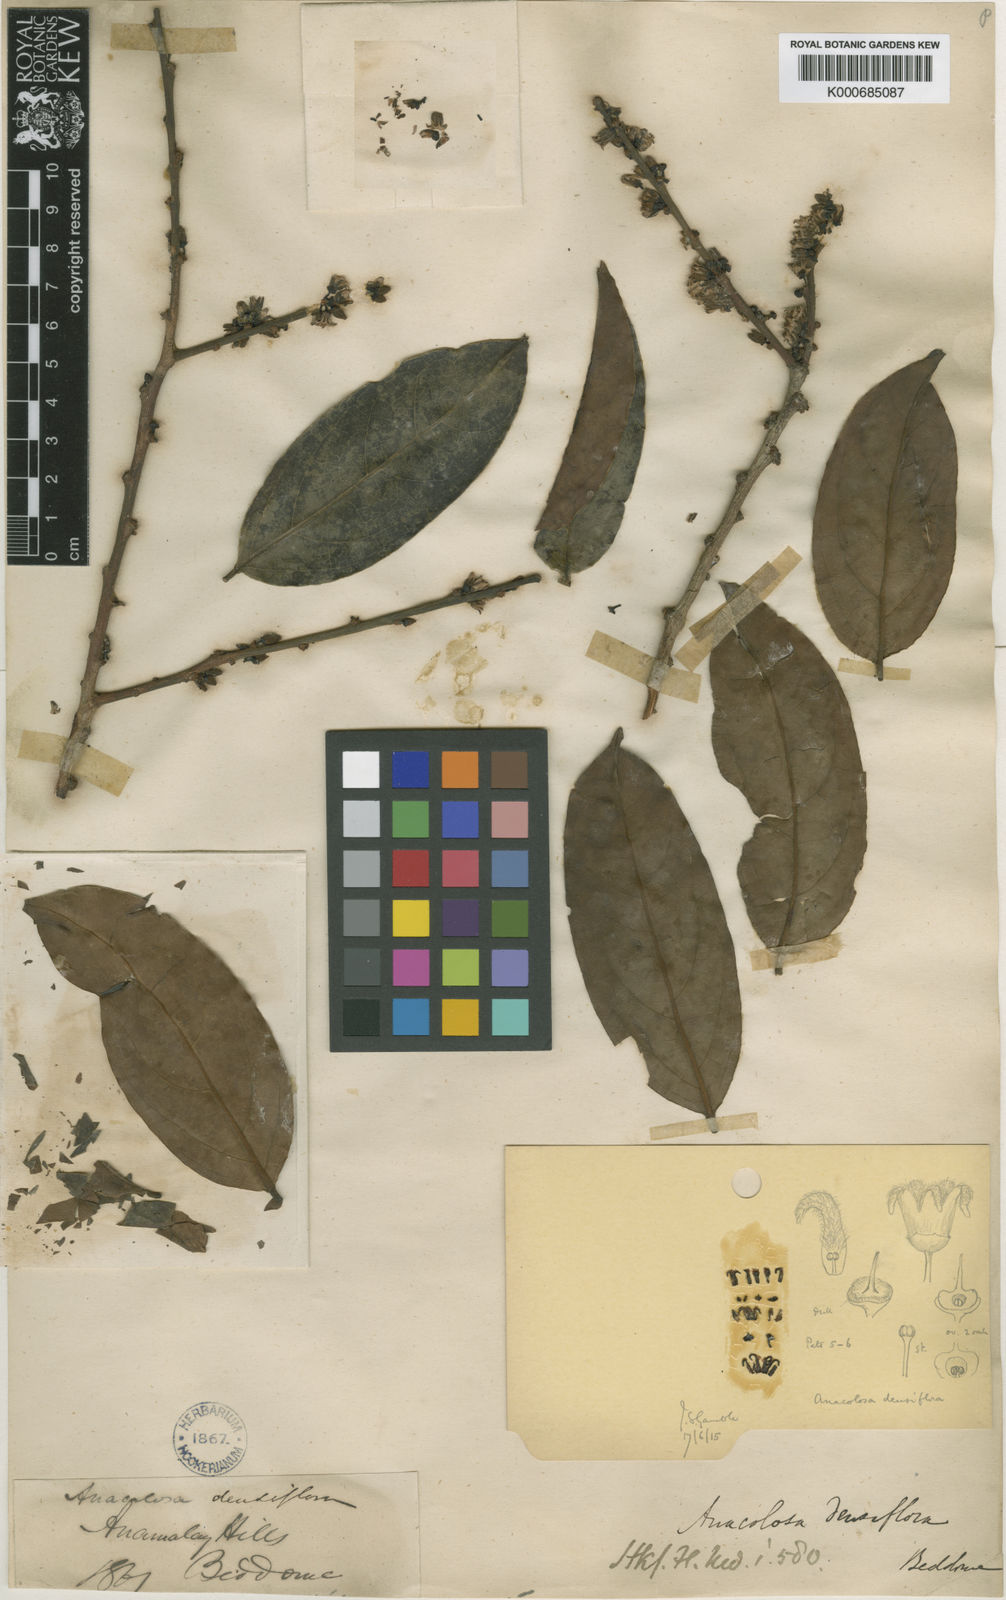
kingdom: Plantae
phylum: Tracheophyta
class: Magnoliopsida
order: Santalales
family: Aptandraceae
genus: Anacolosa
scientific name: Anacolosa densiflora
